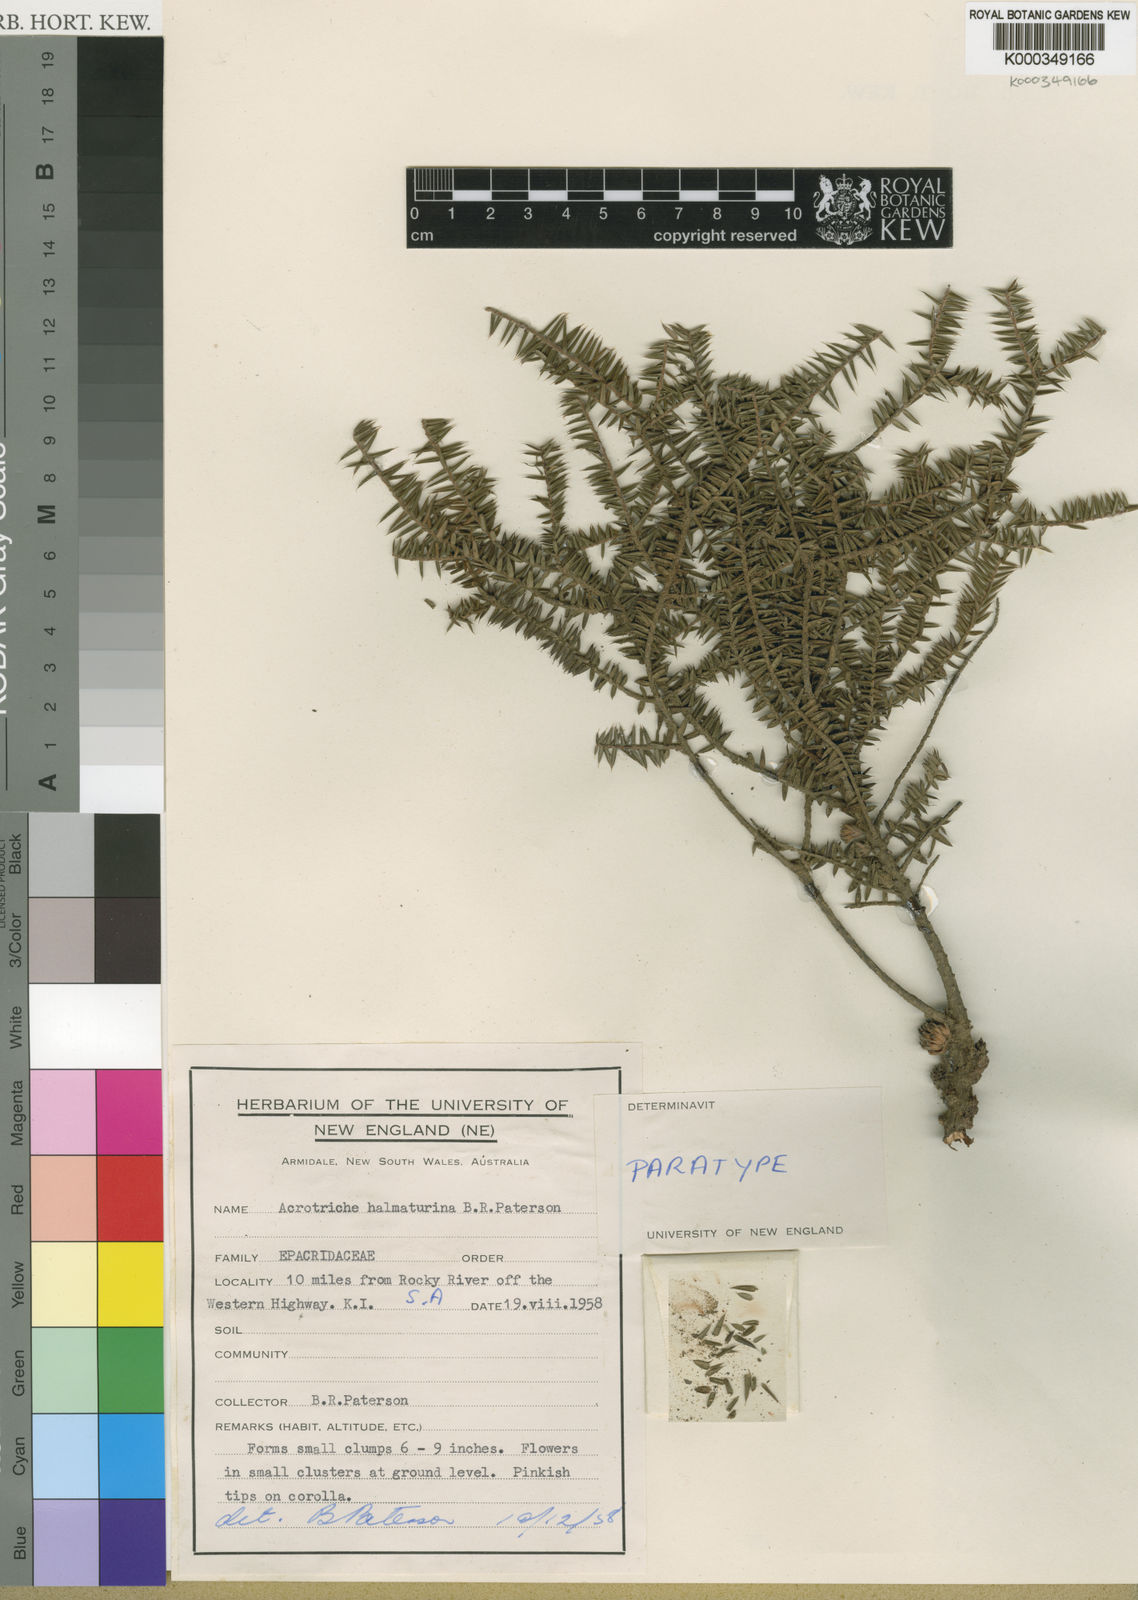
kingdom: Plantae
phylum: Tracheophyta
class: Magnoliopsida
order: Ericales
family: Ericaceae
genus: Acrotriche
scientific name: Acrotriche halmaturina
